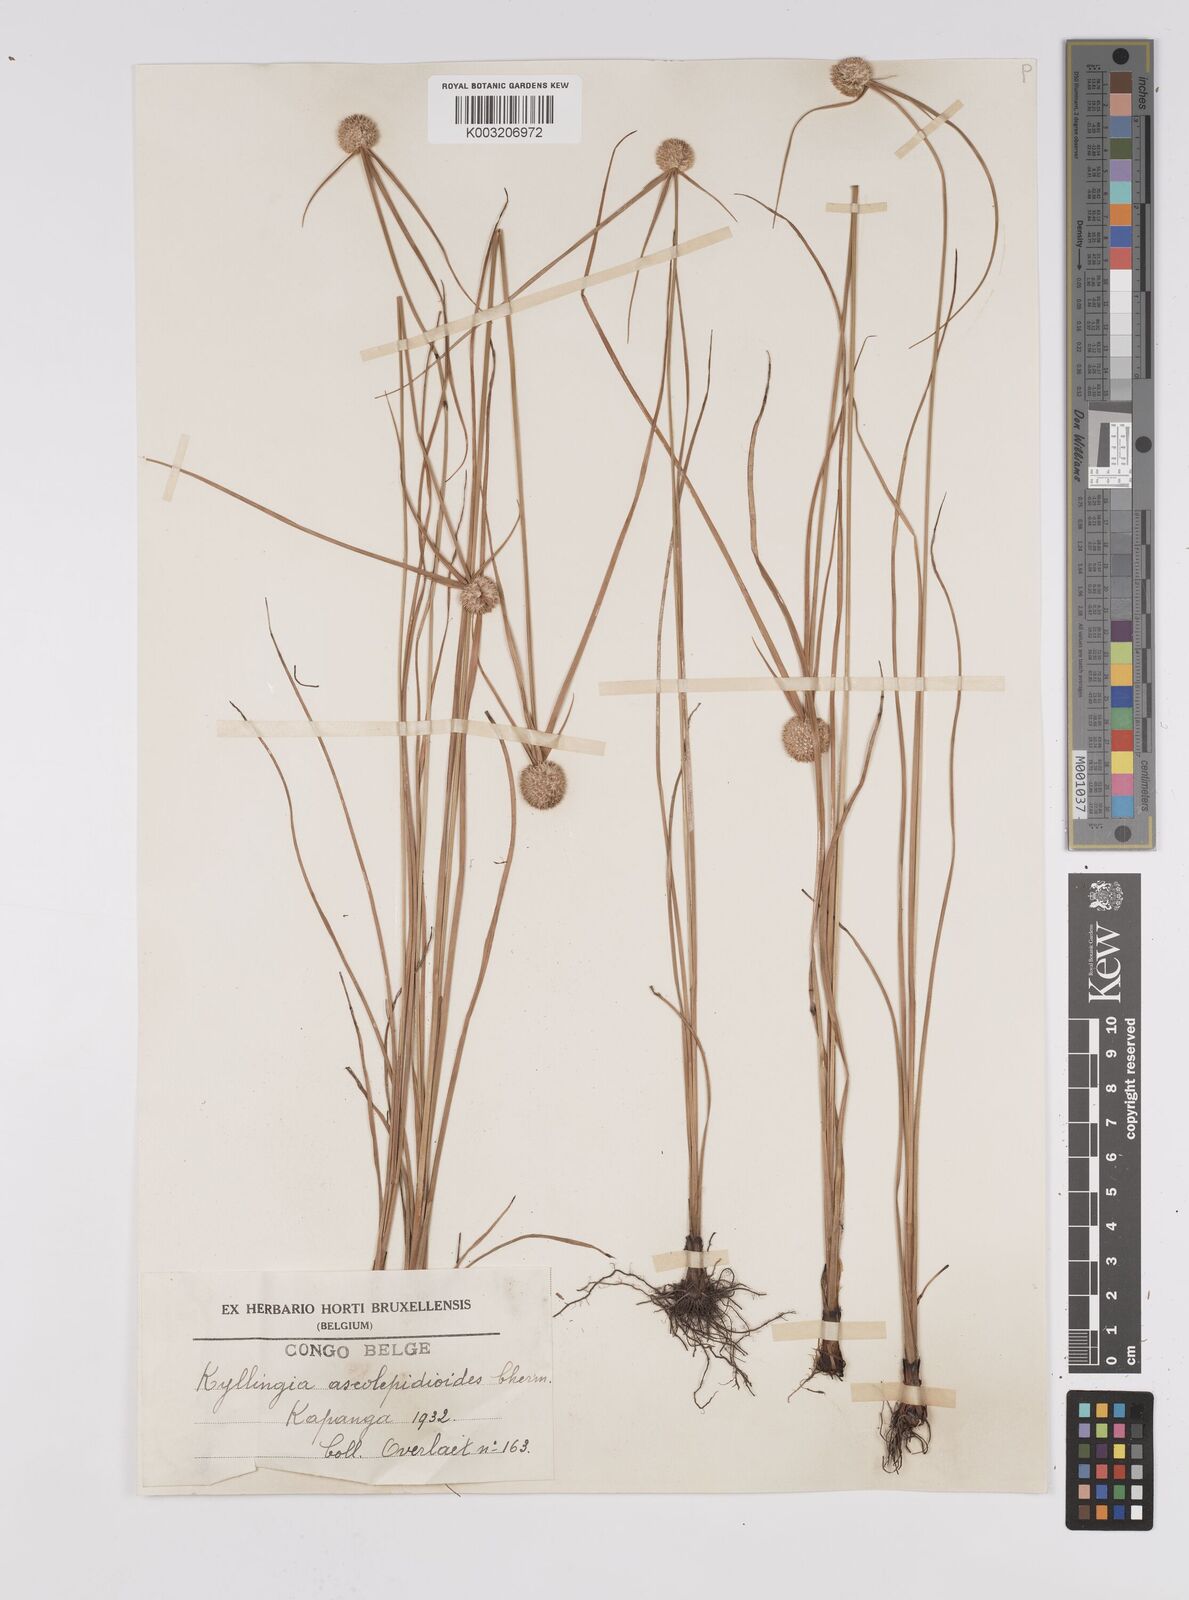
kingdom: Plantae
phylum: Tracheophyta
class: Liliopsida
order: Poales
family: Cyperaceae
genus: Cyperus
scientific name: Cyperus alatus
